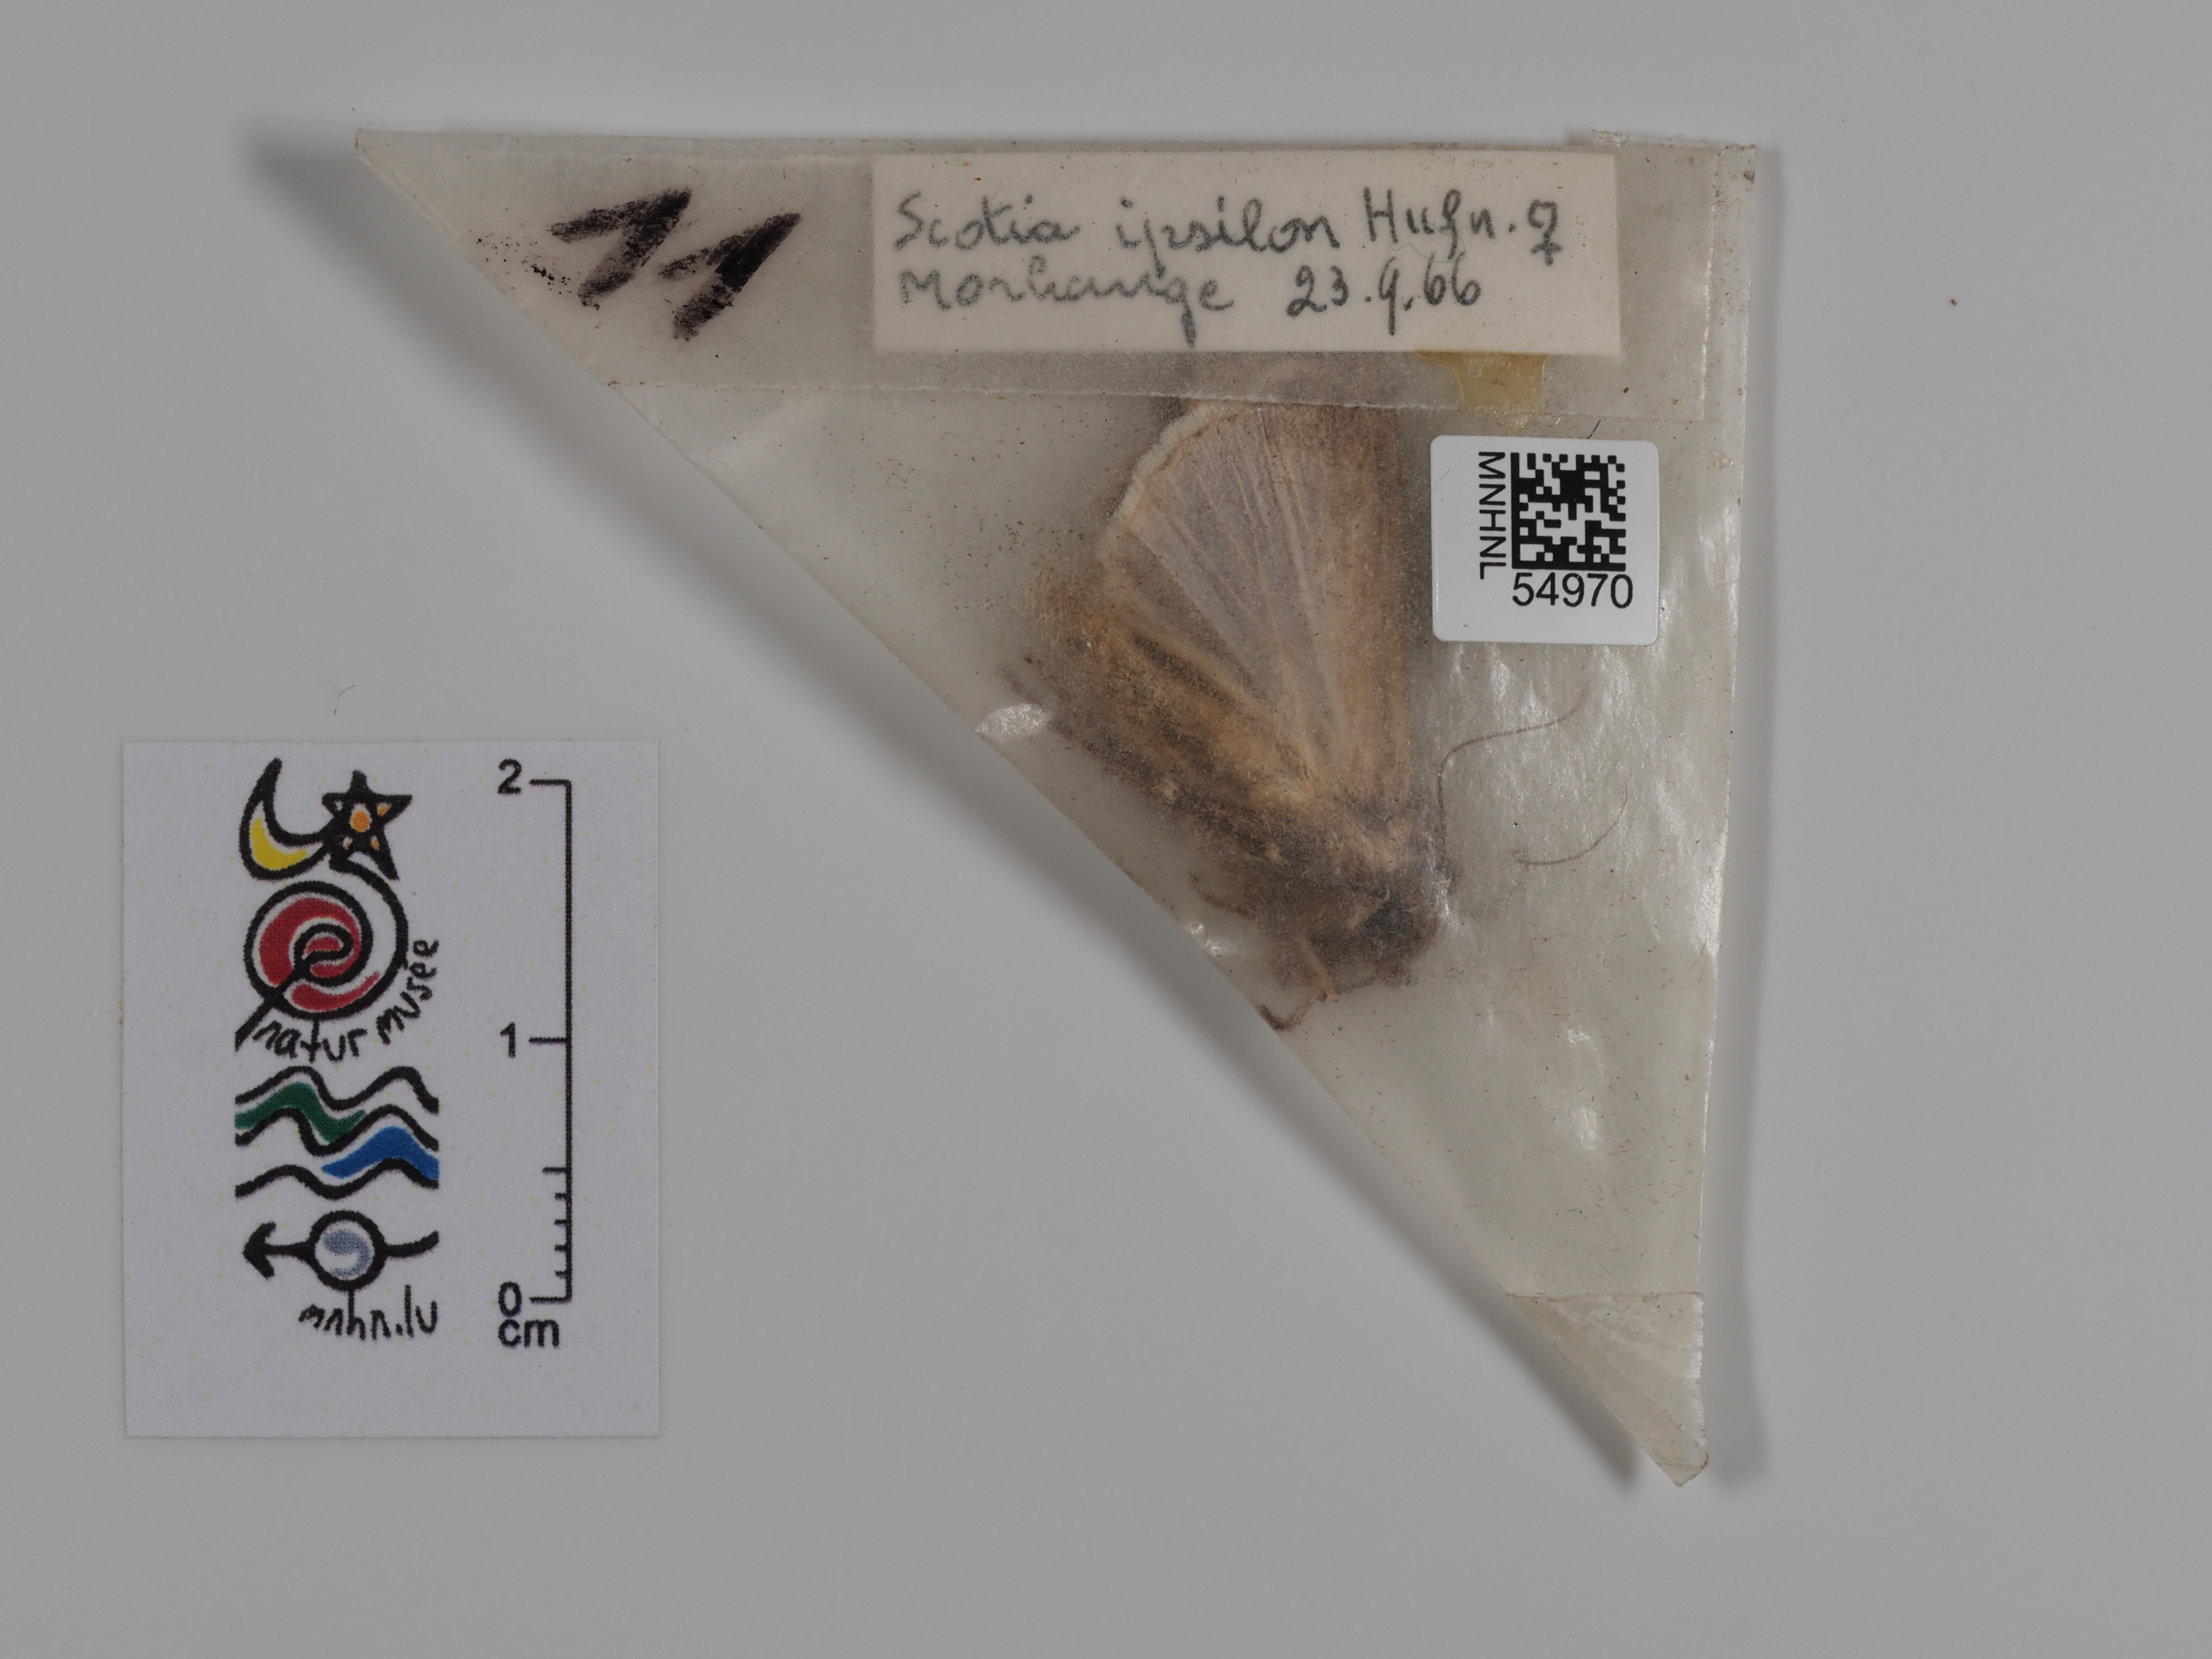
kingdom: Animalia
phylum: Arthropoda
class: Insecta
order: Lepidoptera
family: Noctuidae
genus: Agrotis
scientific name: Agrotis ipsilon
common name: Dark sword-grass
